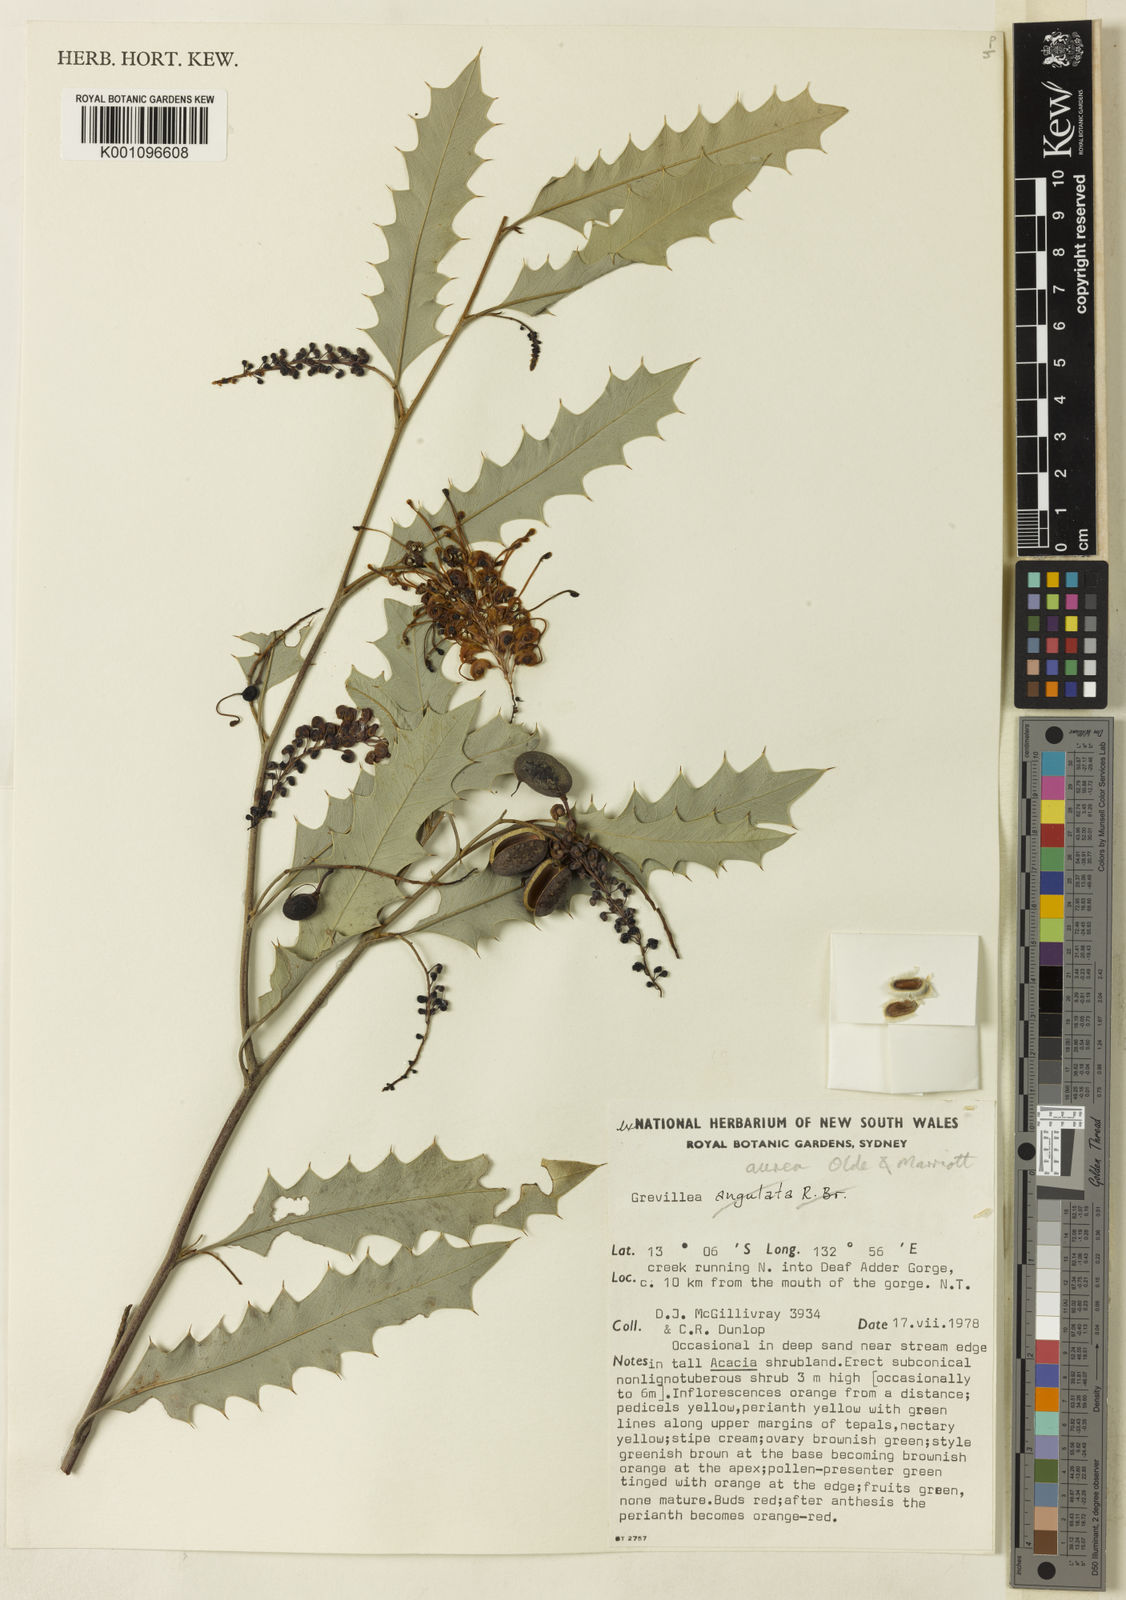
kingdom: Plantae
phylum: Tracheophyta
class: Magnoliopsida
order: Proteales
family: Proteaceae
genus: Grevillea
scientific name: Grevillea aurea
